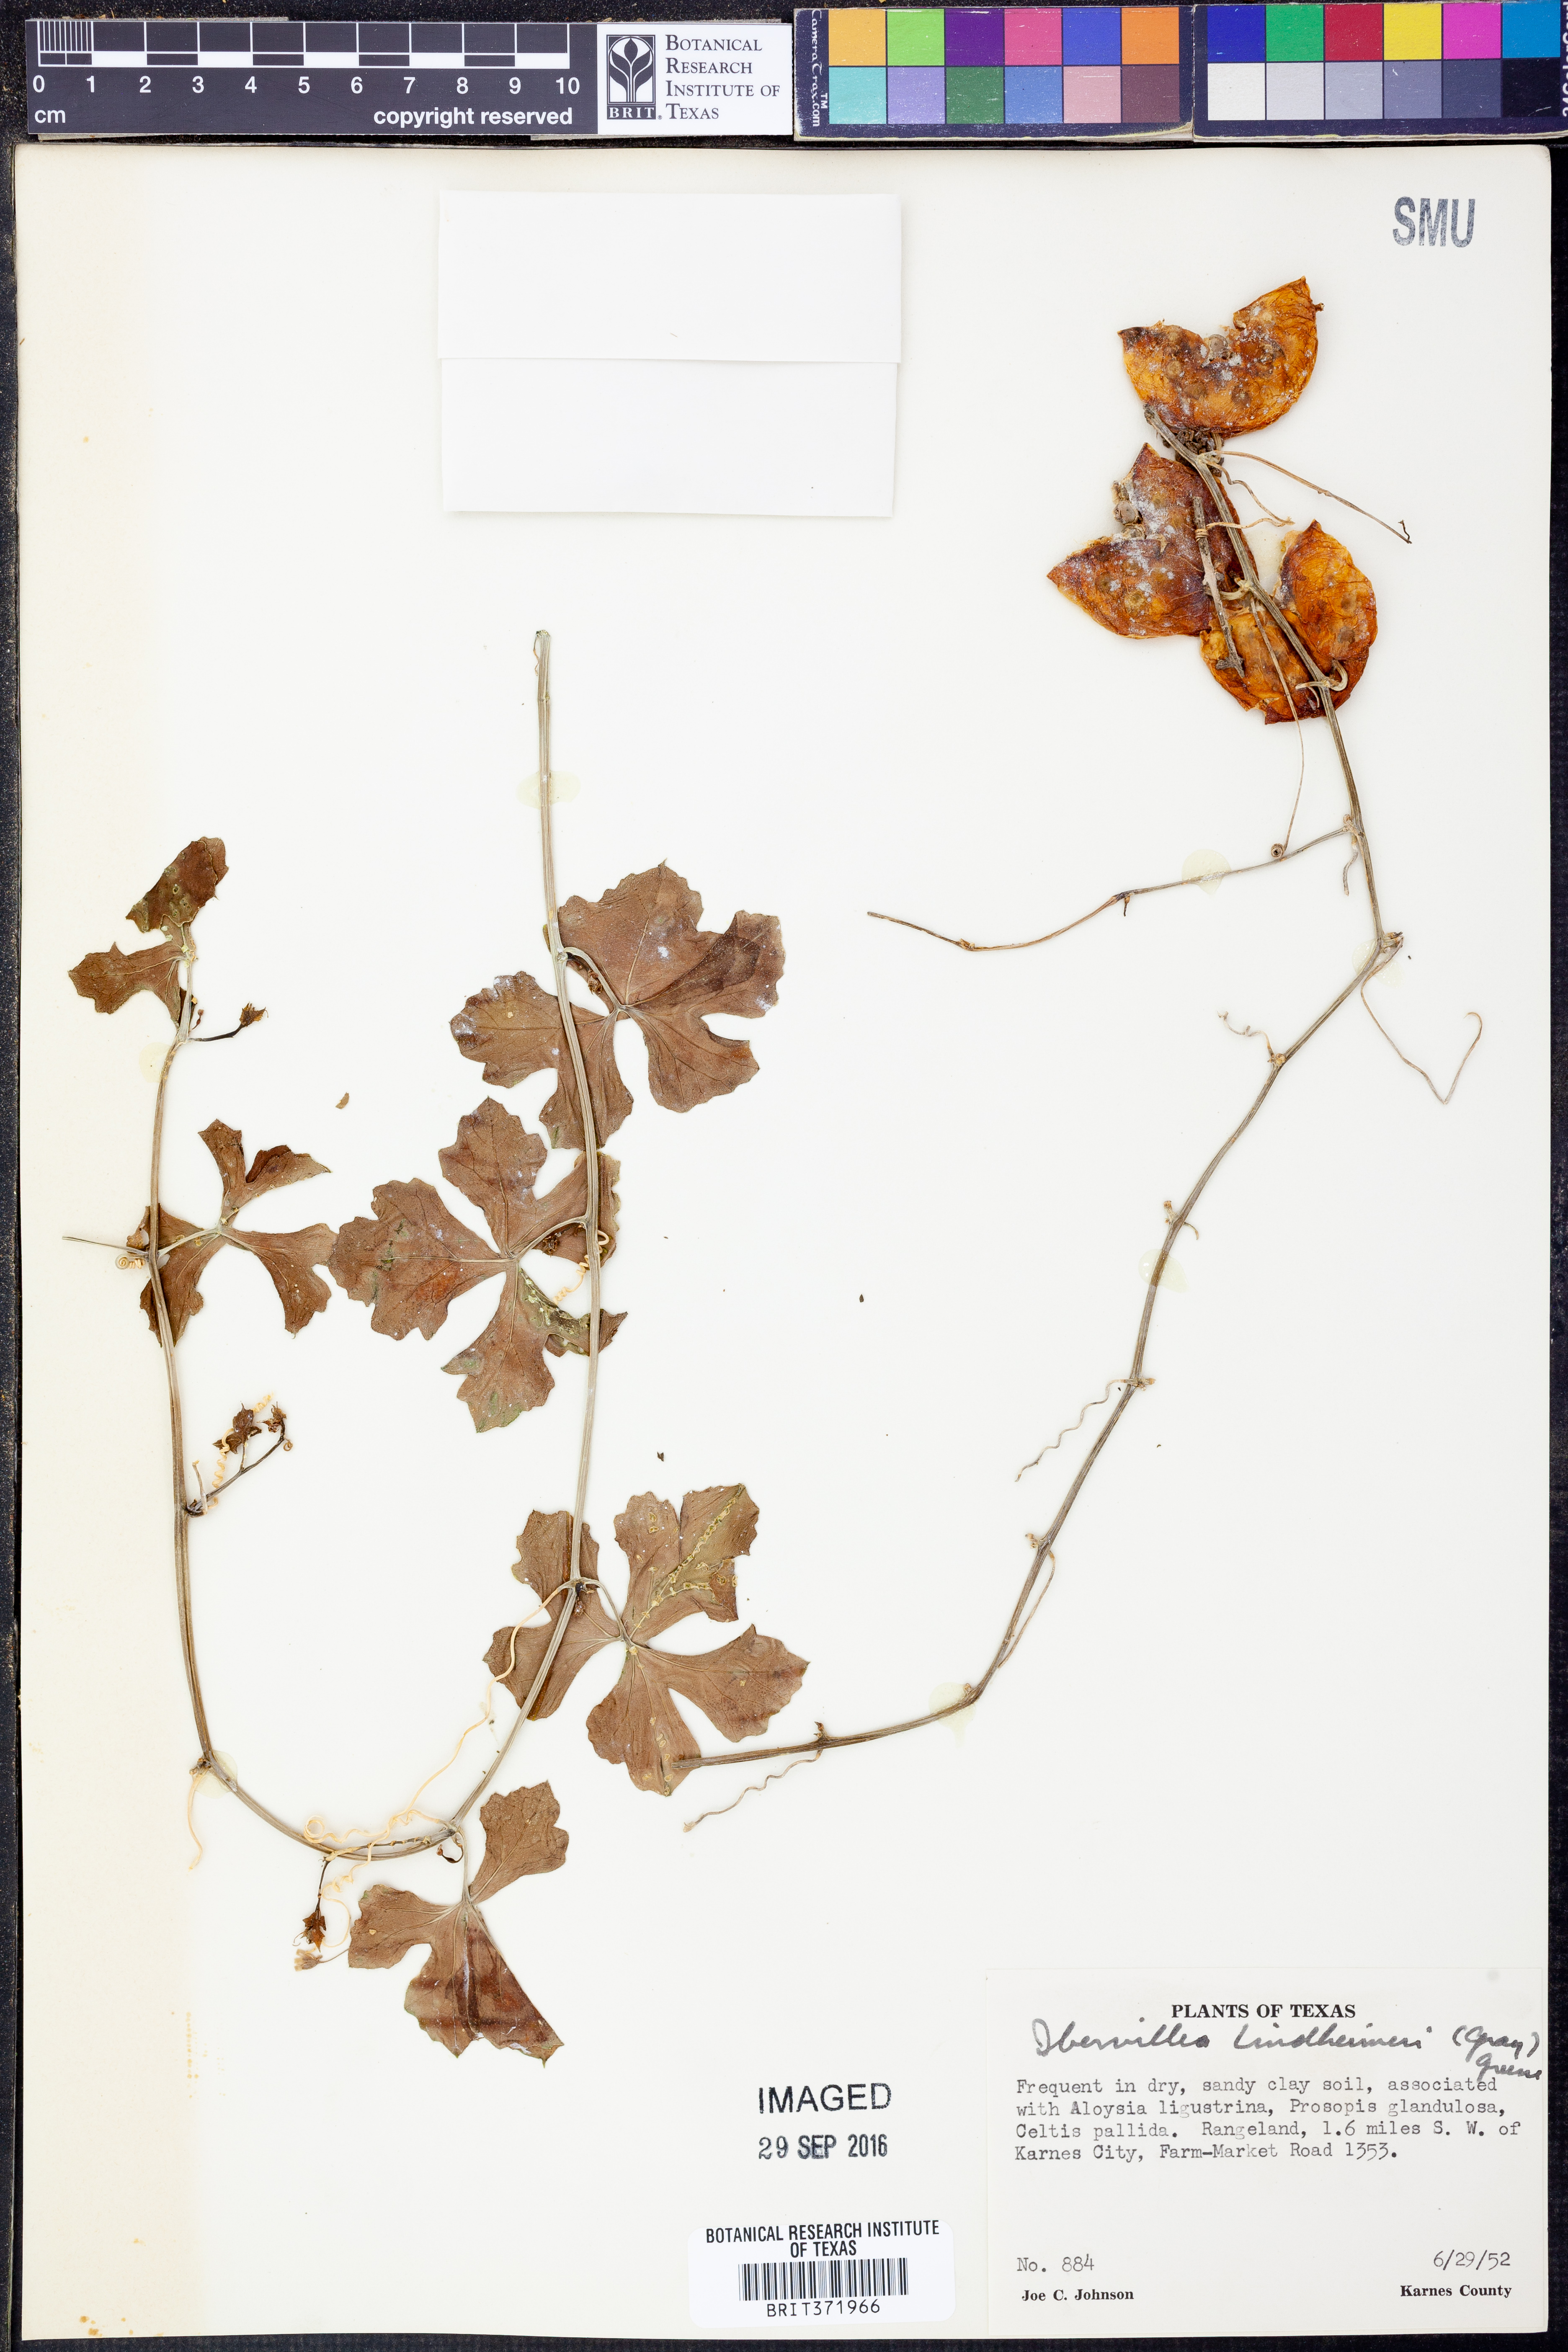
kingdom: Plantae
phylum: Tracheophyta
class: Magnoliopsida
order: Cucurbitales
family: Cucurbitaceae
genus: Ibervillea
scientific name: Ibervillea lindheimeri
